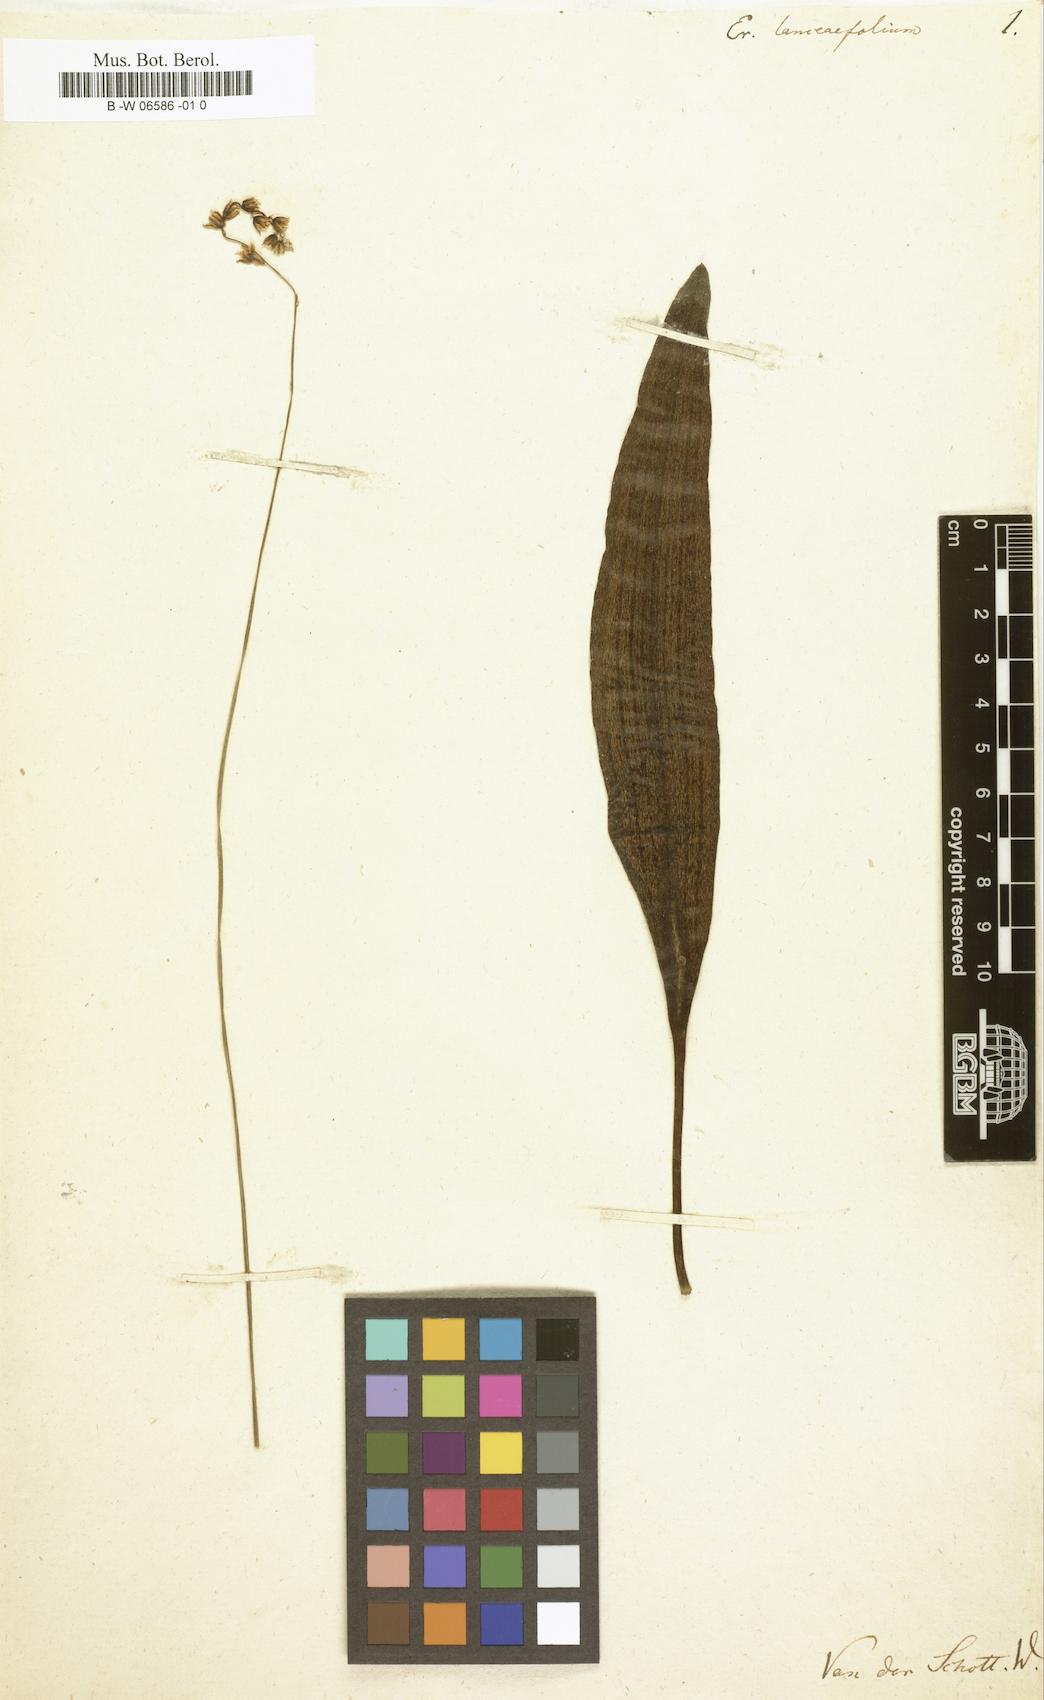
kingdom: Plantae
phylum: Tracheophyta
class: Liliopsida
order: Asparagales
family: Asparagaceae
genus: Eriospermum
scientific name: Eriospermum lanceifolium
